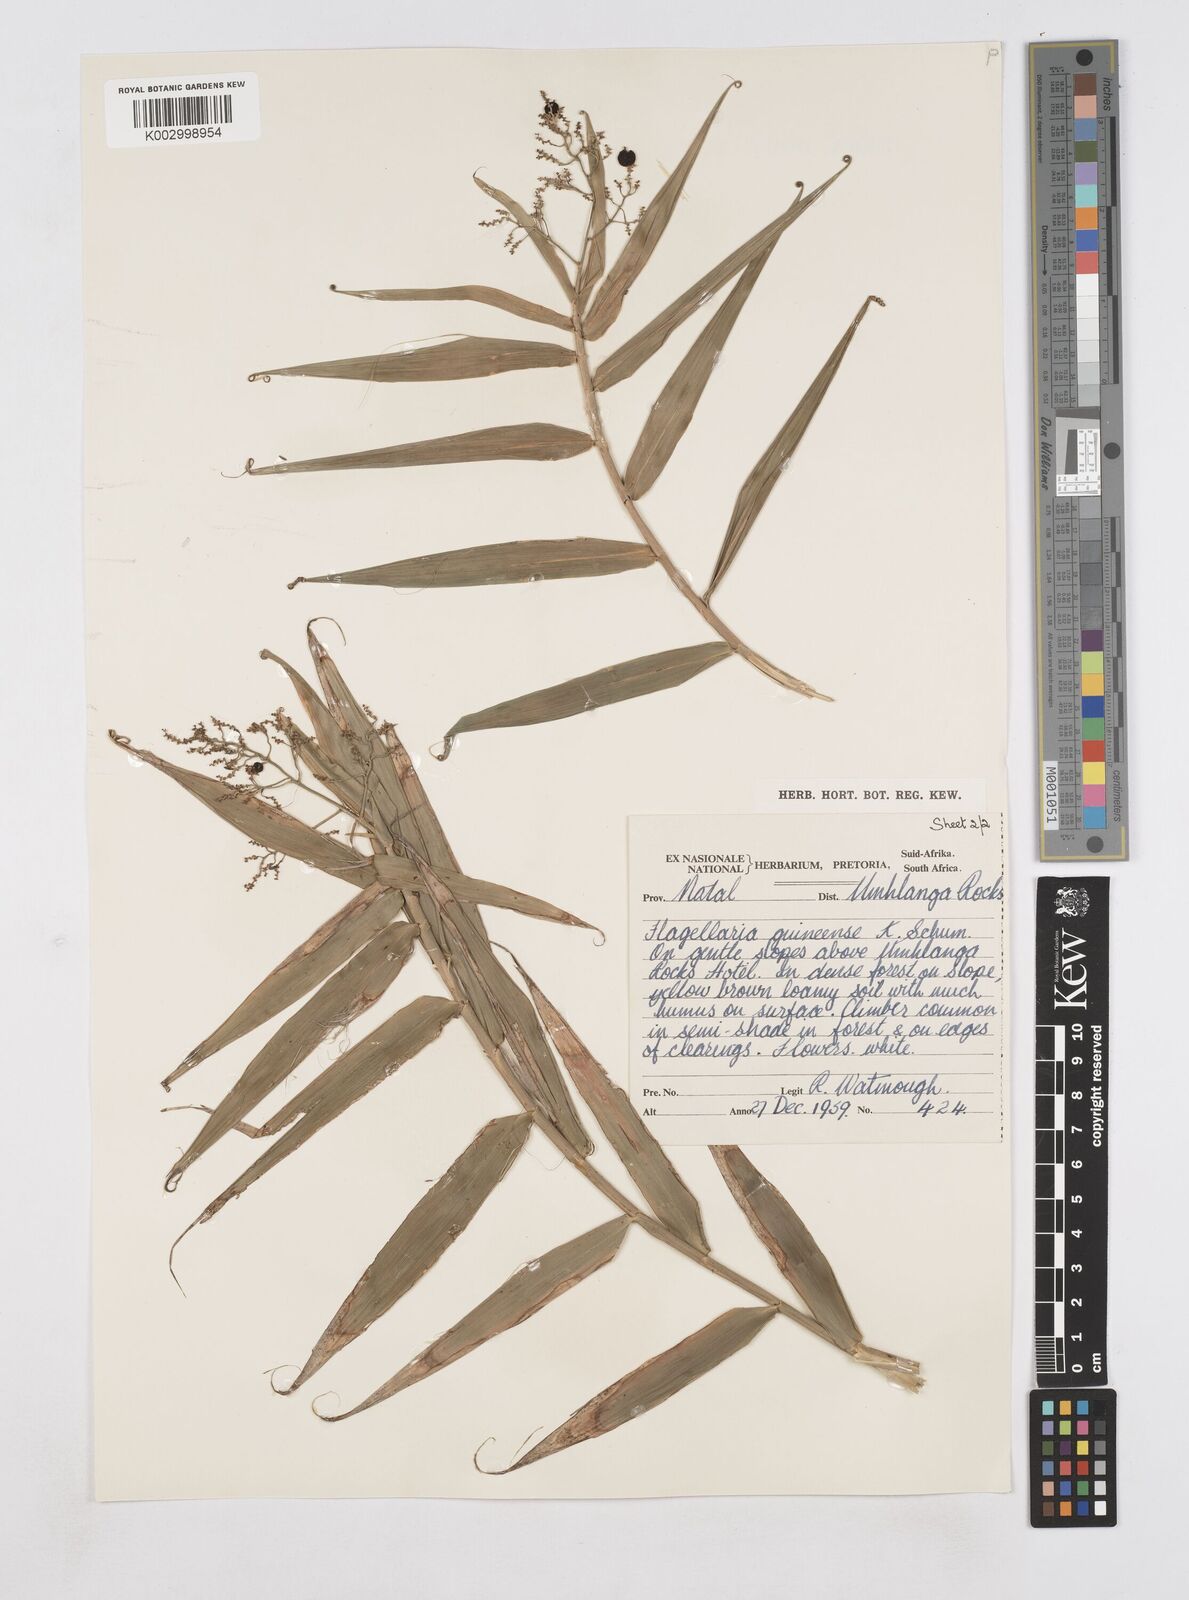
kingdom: Plantae
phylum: Tracheophyta
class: Liliopsida
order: Poales
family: Flagellariaceae
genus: Flagellaria
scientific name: Flagellaria guineensis
